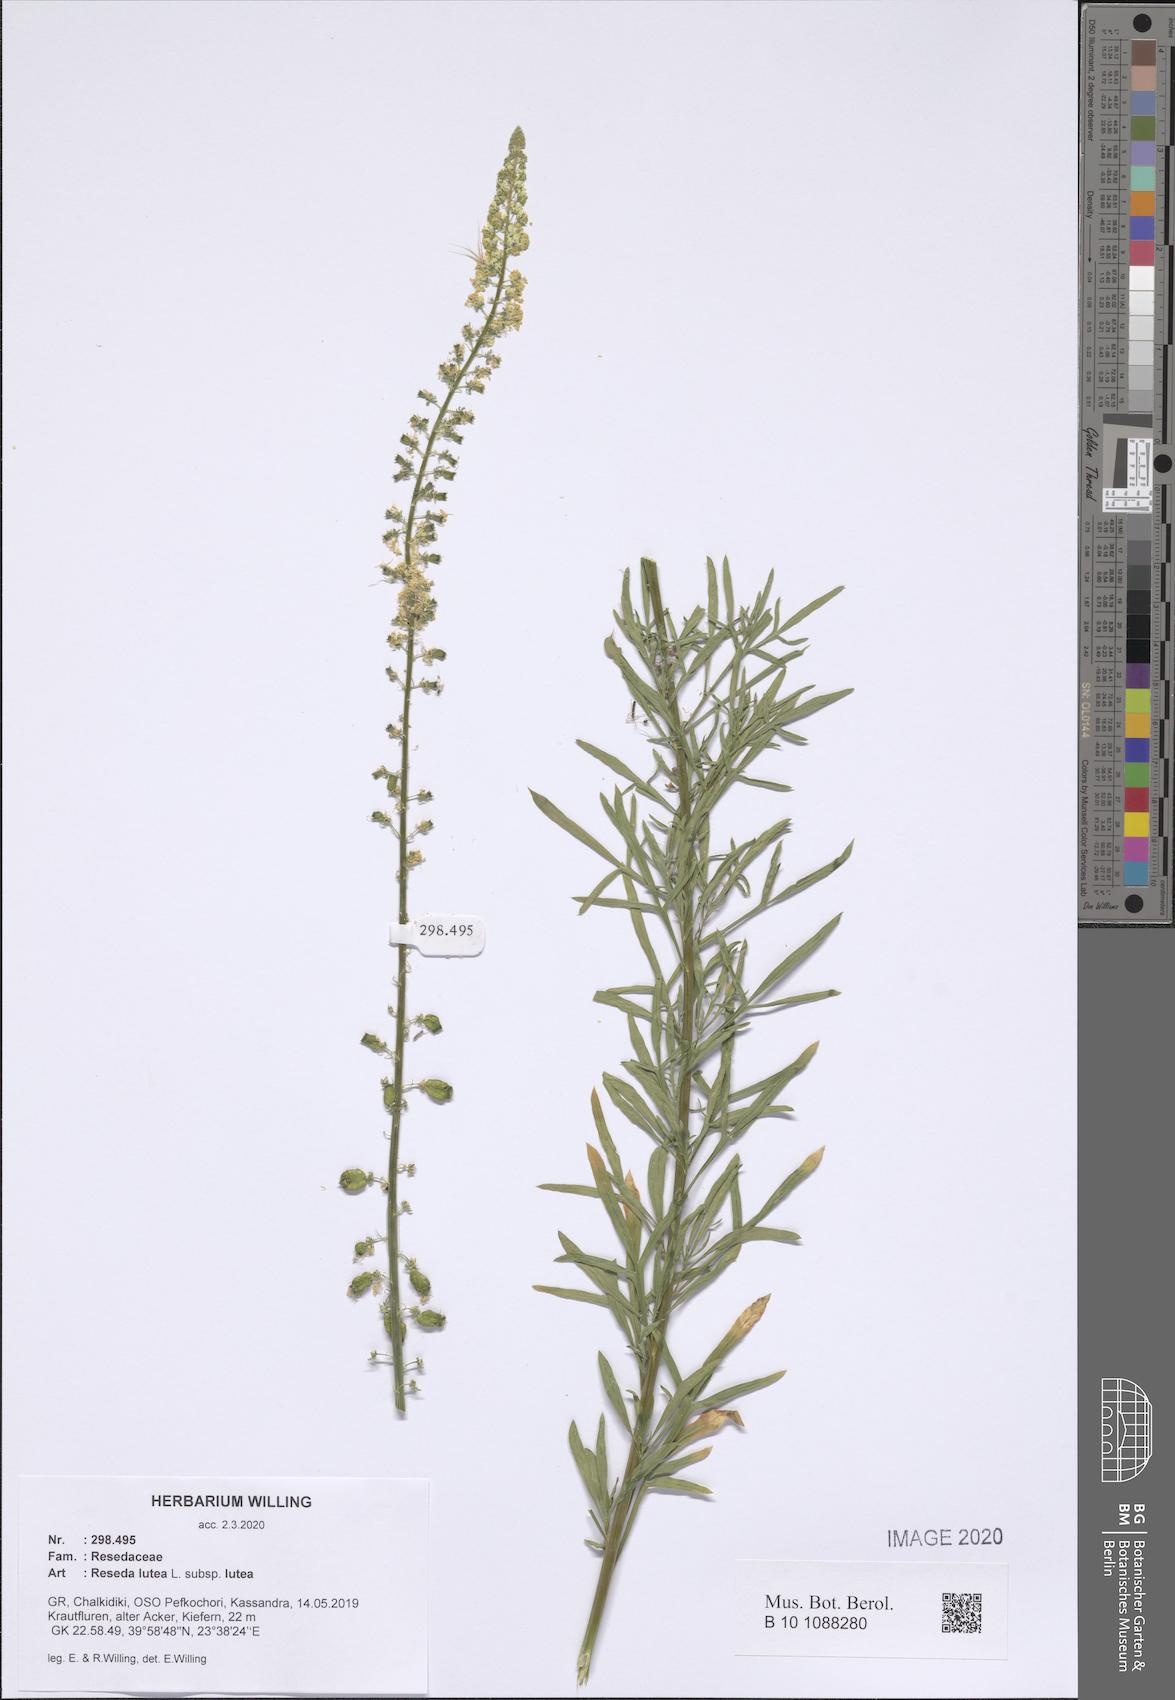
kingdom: Plantae
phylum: Tracheophyta
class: Magnoliopsida
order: Brassicales
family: Resedaceae
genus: Reseda
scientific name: Reseda lutea
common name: Wild mignonette
